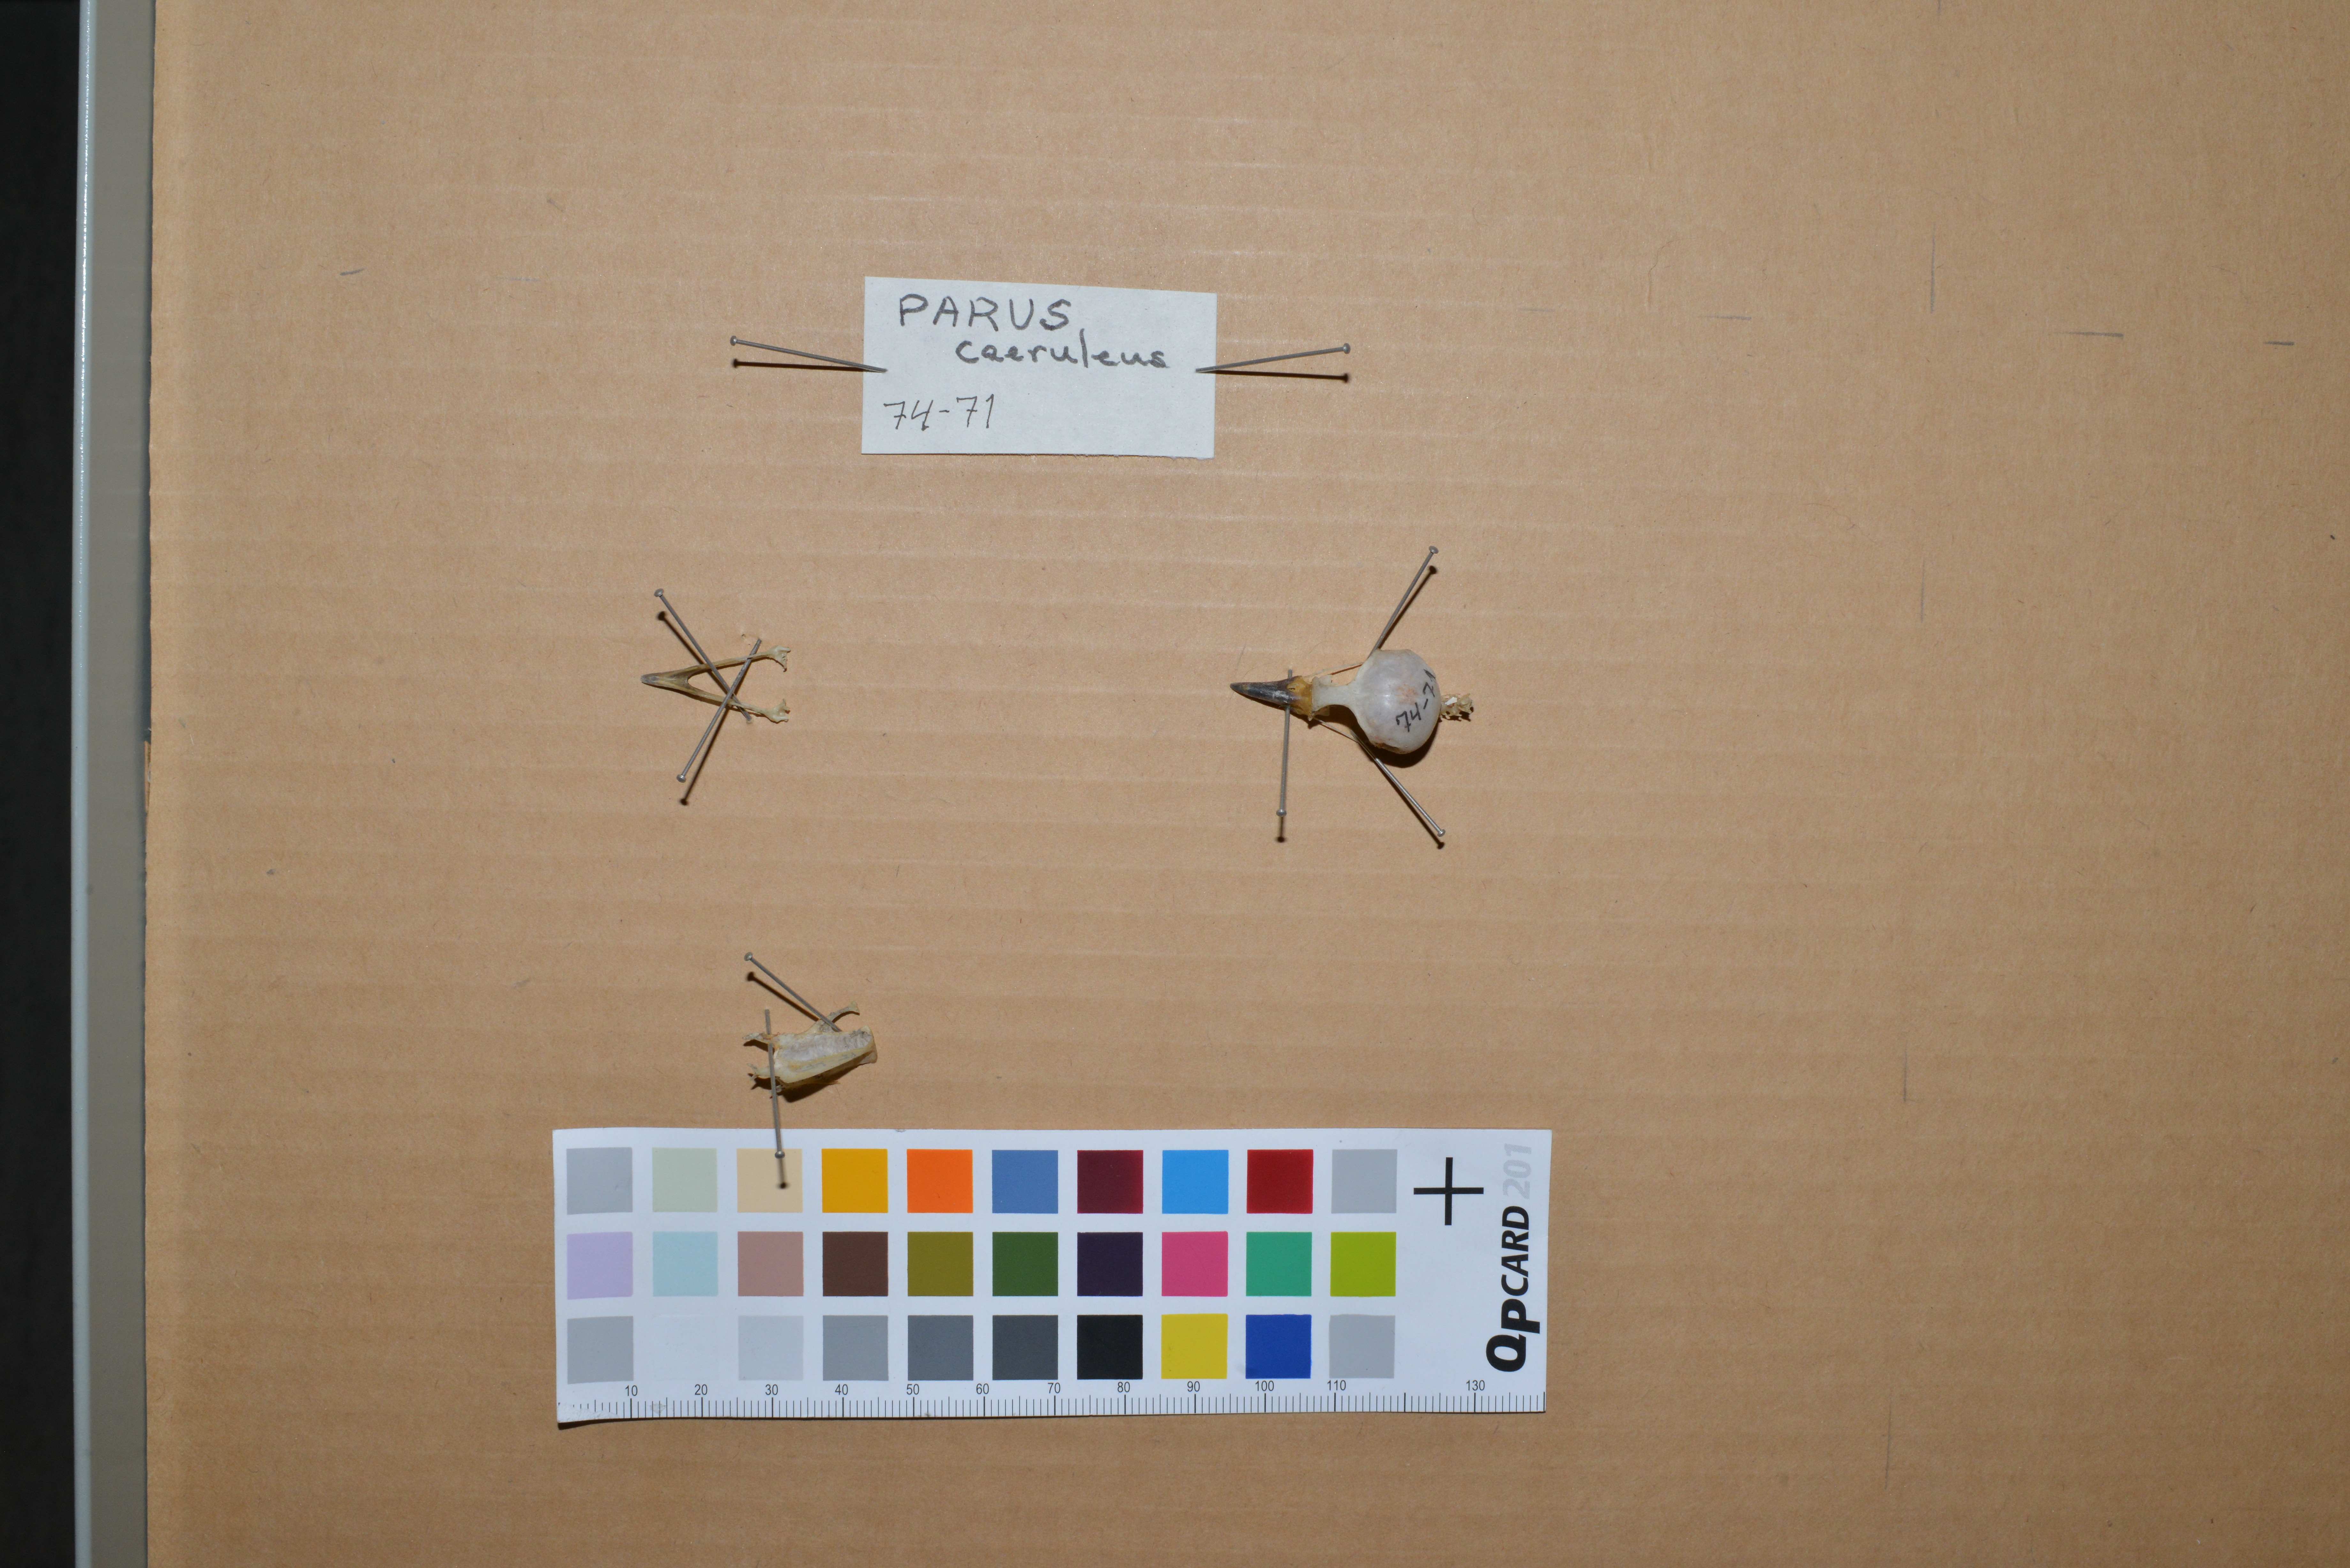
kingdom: Animalia
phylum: Chordata
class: Aves
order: Passeriformes
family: Paridae
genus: Cyanistes
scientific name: Cyanistes caeruleus
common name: Eurasian blue tit
